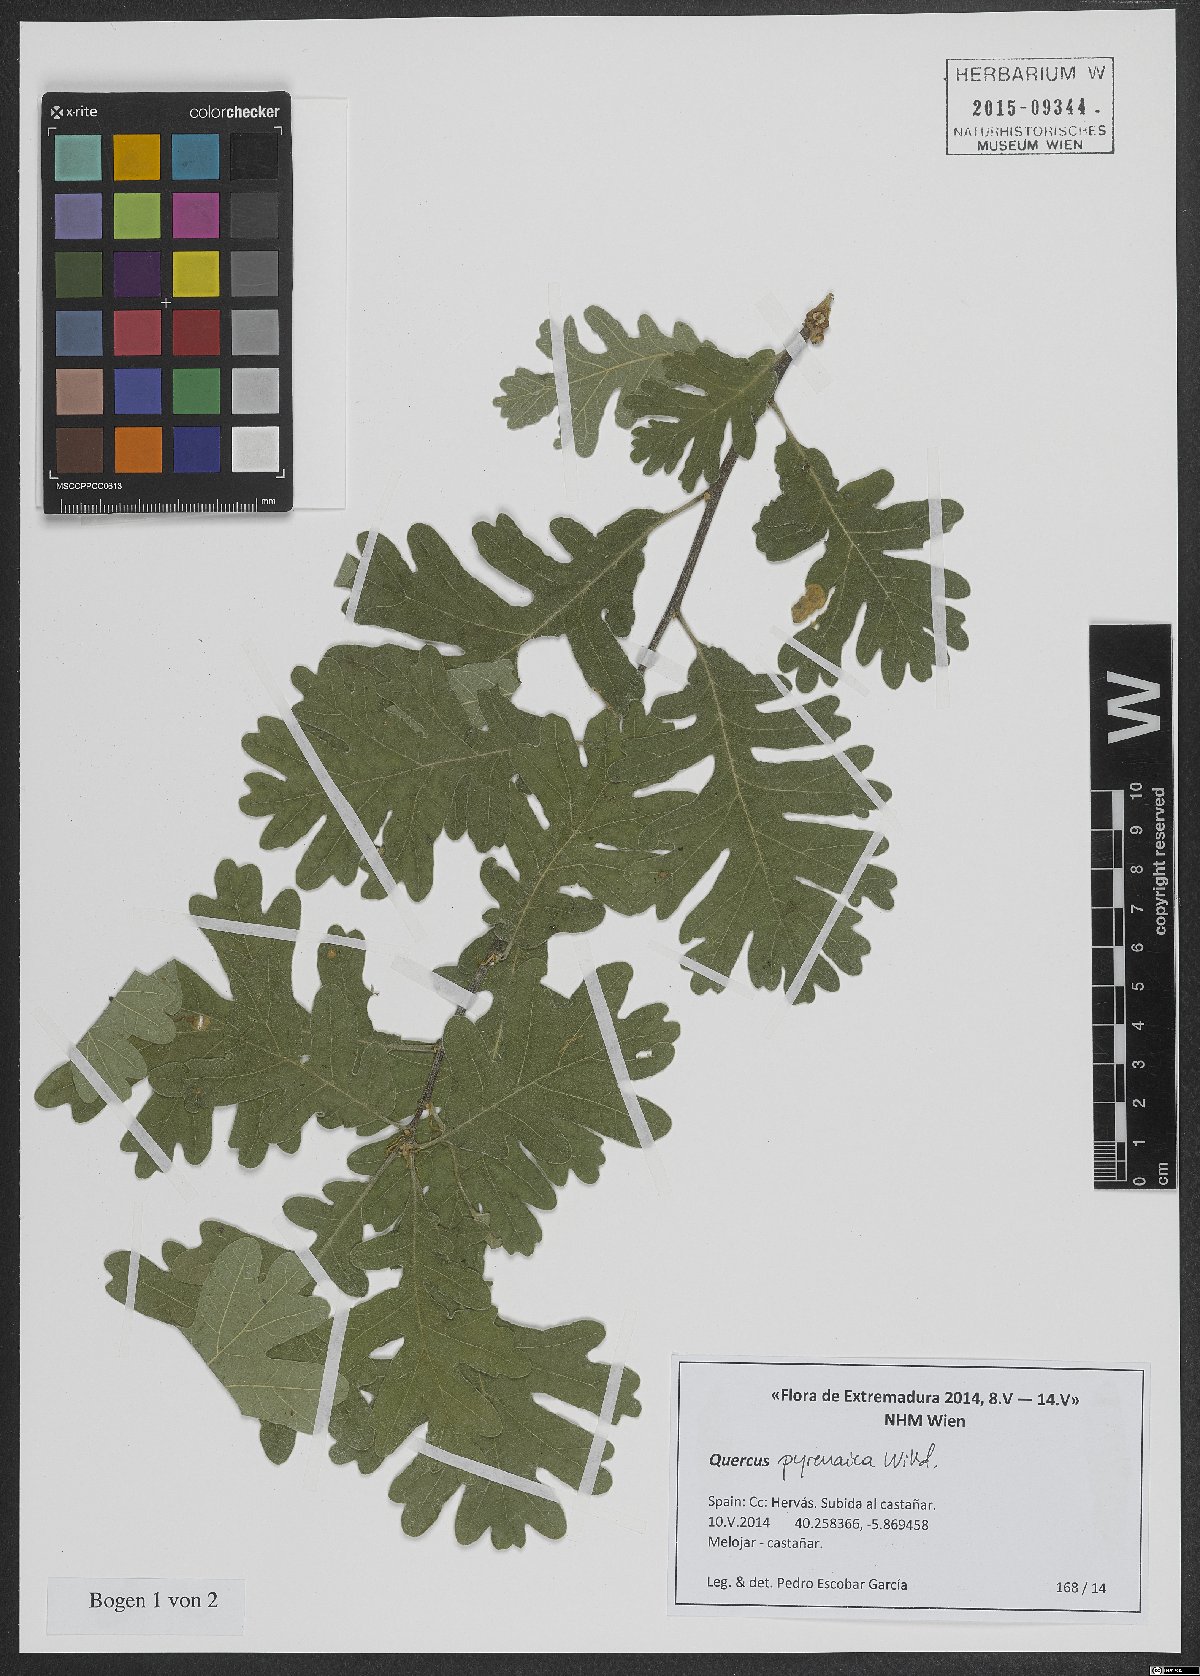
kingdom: Plantae
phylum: Tracheophyta
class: Magnoliopsida
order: Fagales
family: Fagaceae
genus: Quercus
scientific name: Quercus pyrenaica
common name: Pyrenean oak
